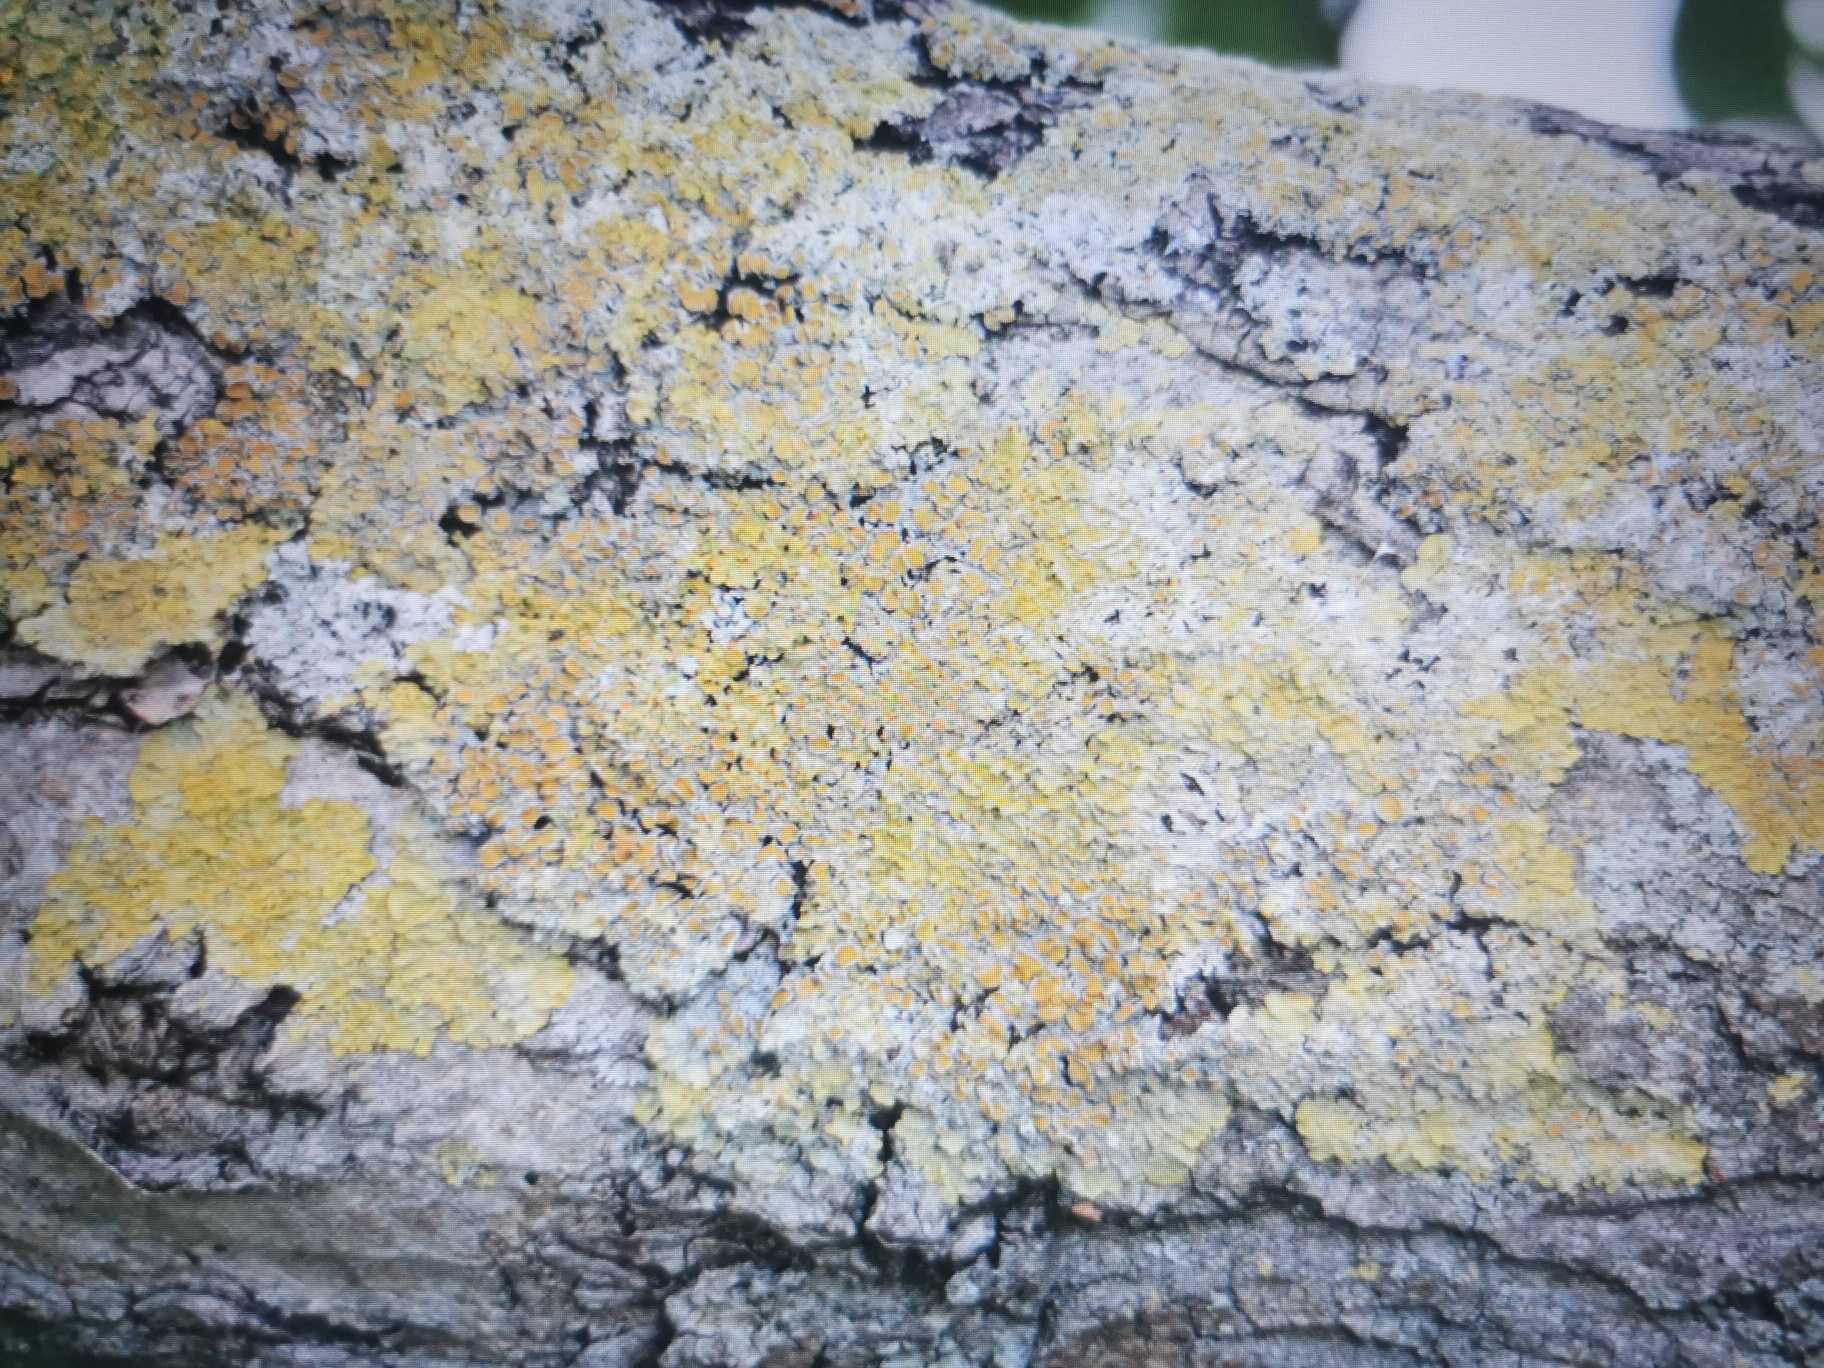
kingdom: Fungi
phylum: Ascomycota
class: Lecanoromycetes
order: Teloschistales
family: Teloschistaceae
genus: Xanthoria
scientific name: Xanthoria parietina
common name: Almindelig væggelav
